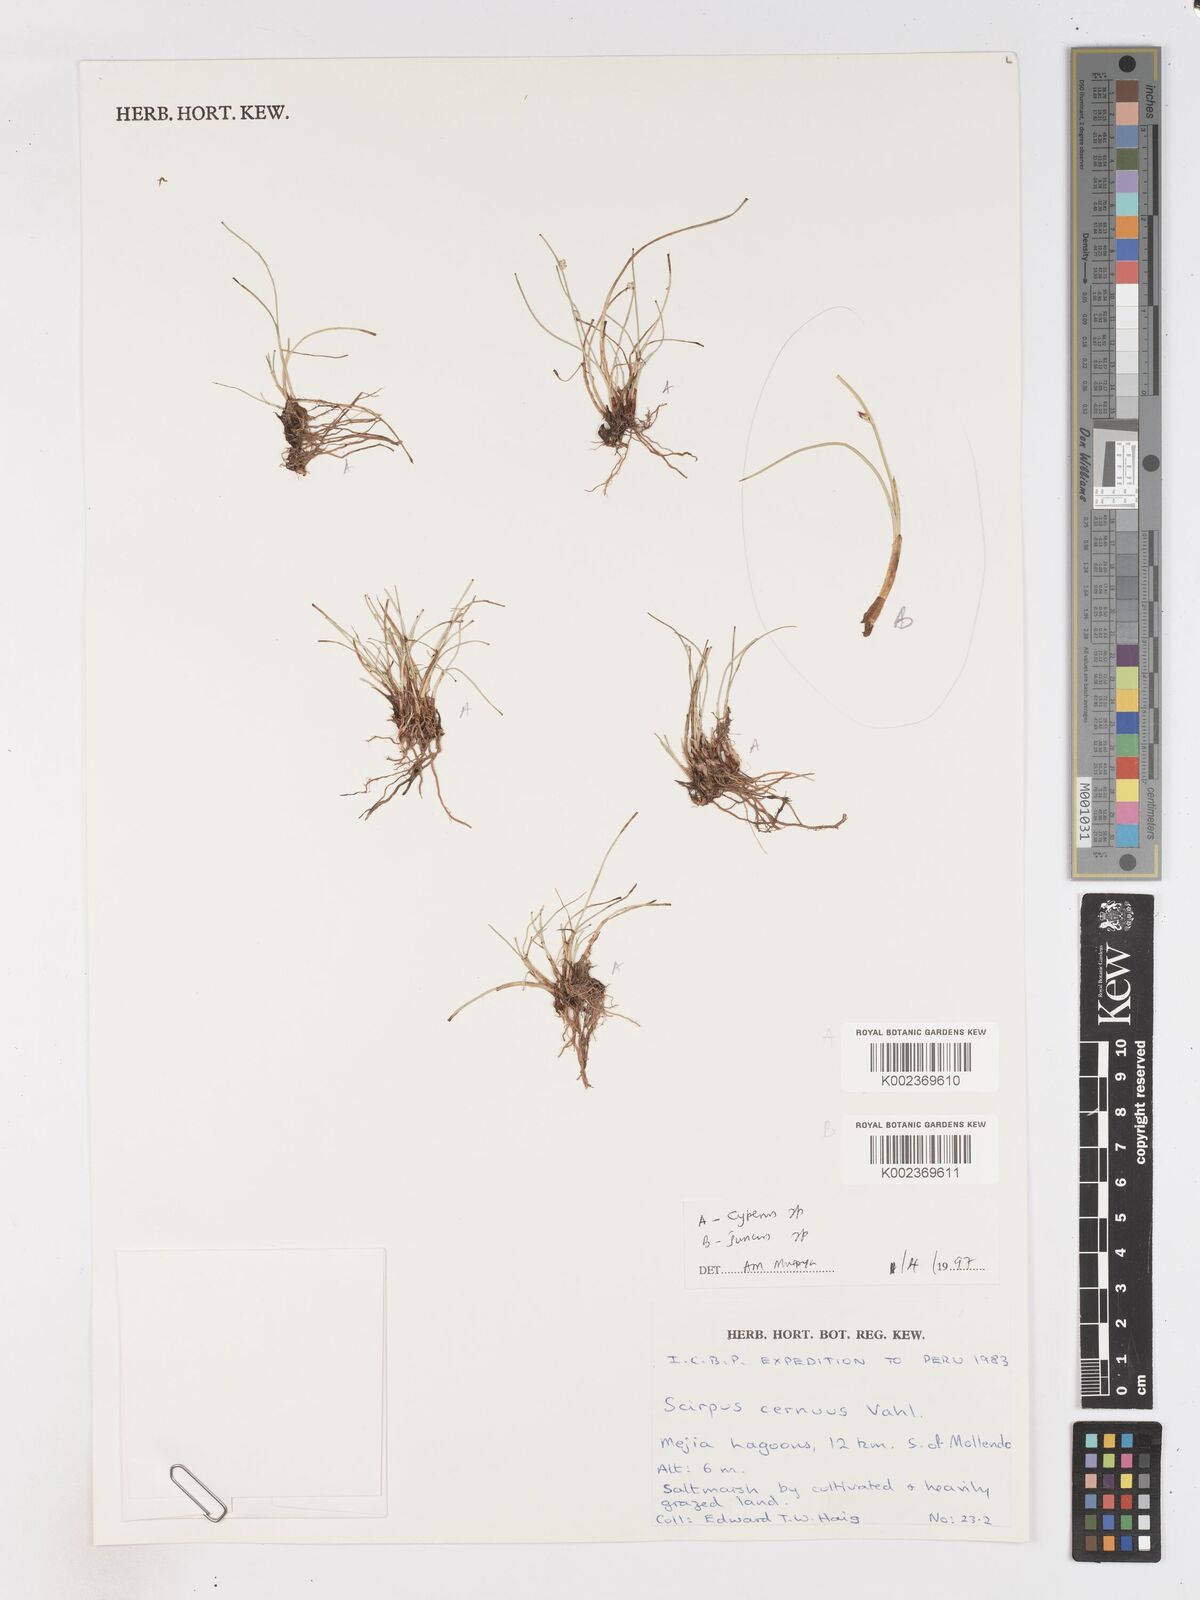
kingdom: Plantae
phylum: Tracheophyta
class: Liliopsida
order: Poales
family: Cyperaceae
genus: Isolepis
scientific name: Isolepis cernua
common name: Slender club-rush
